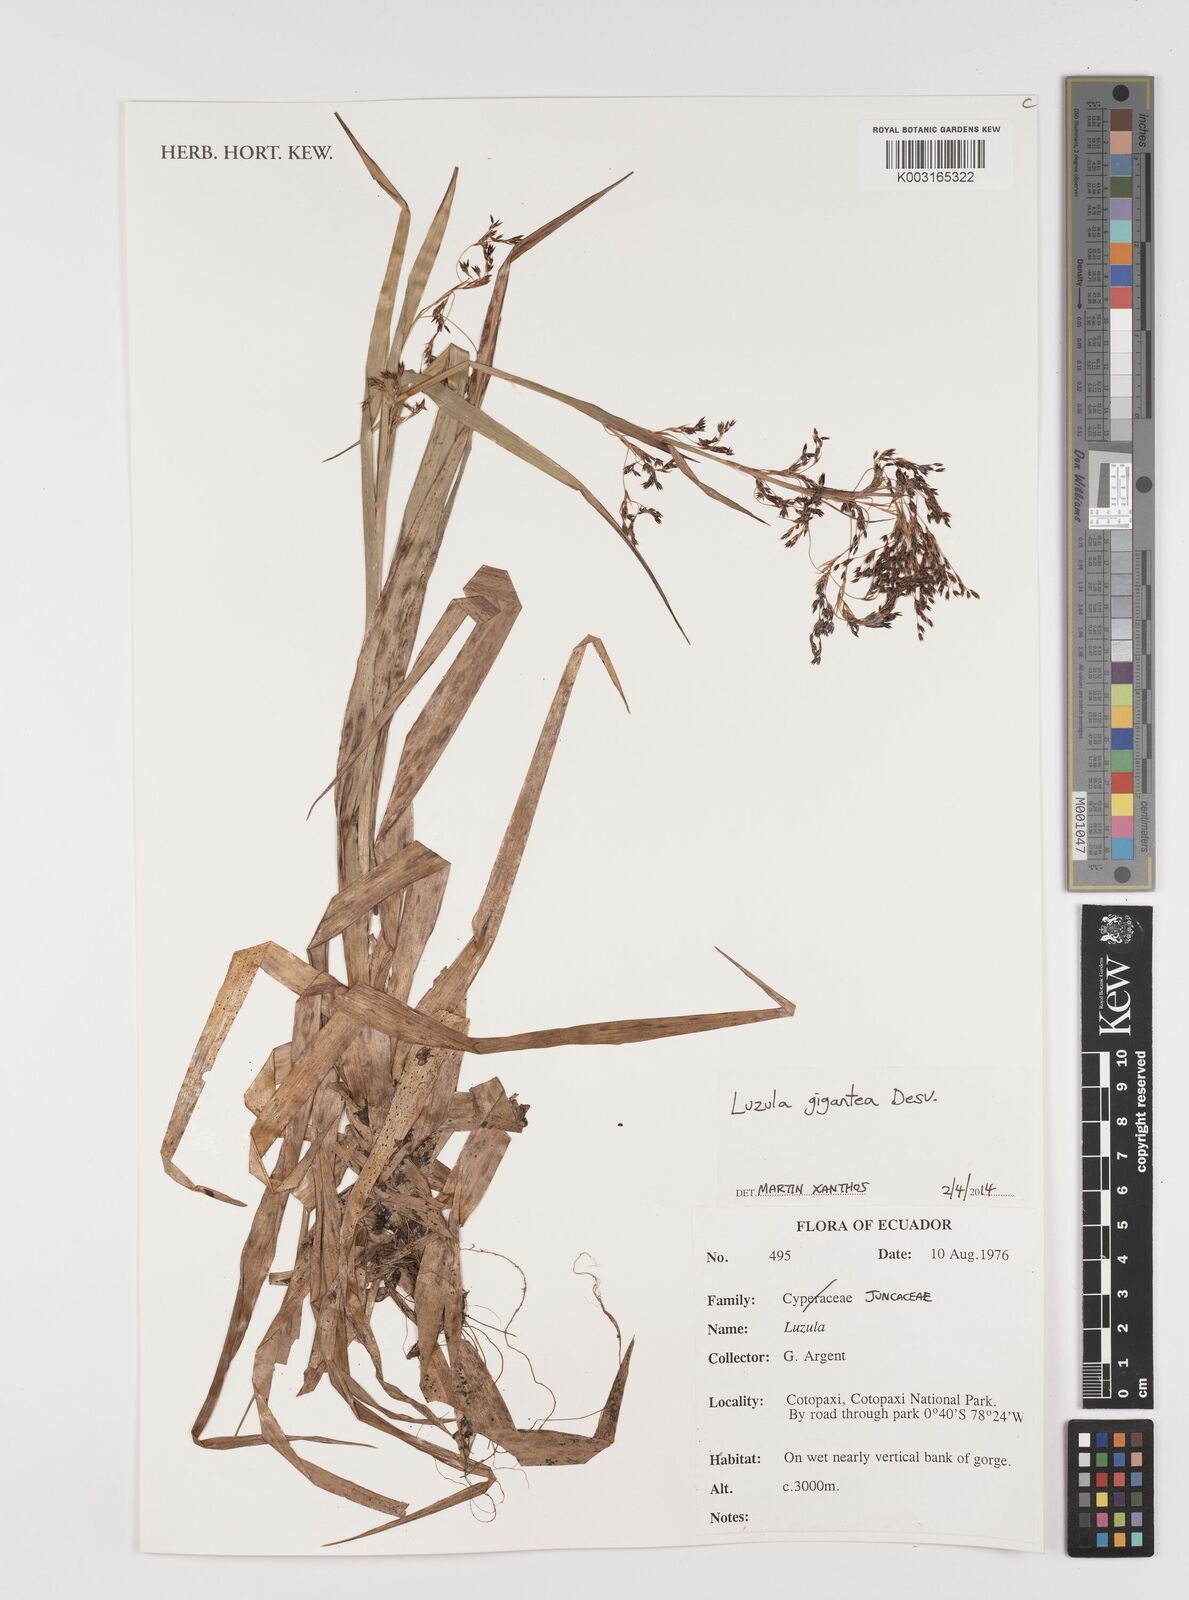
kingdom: Plantae
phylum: Tracheophyta
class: Liliopsida
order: Poales
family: Juncaceae
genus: Luzula
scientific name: Luzula gigantea
